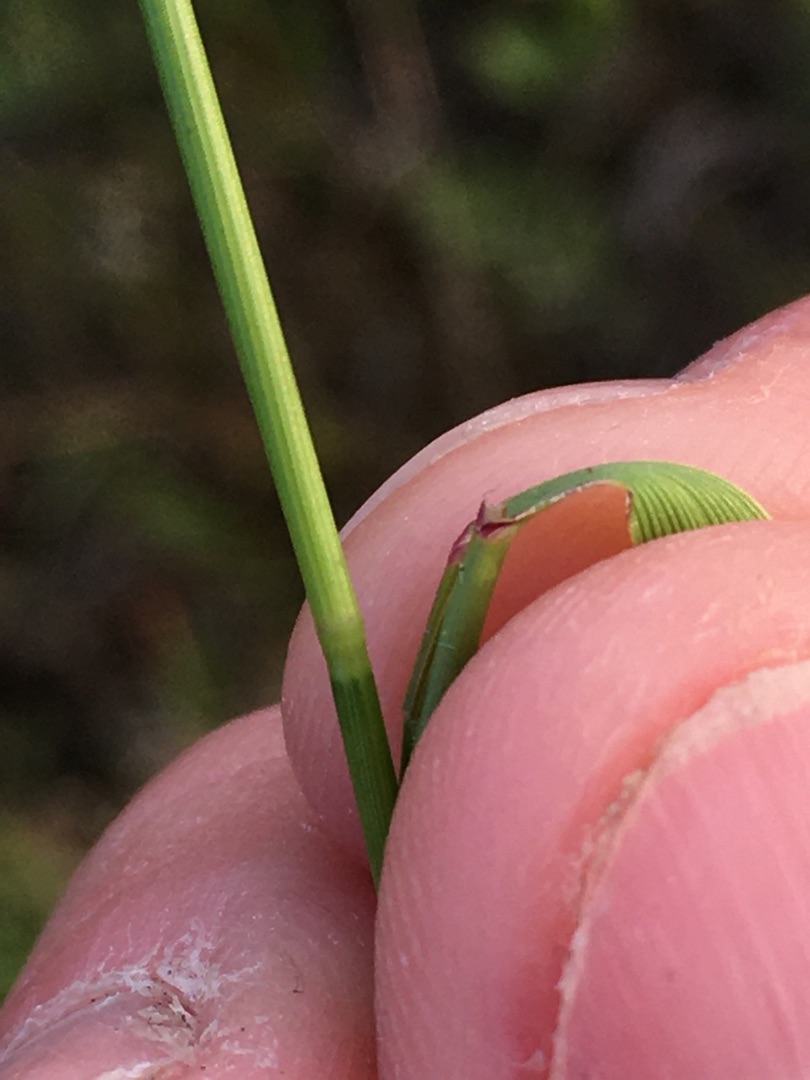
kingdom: Plantae
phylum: Tracheophyta
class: Liliopsida
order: Poales
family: Poaceae
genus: Agrostis
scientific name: Agrostis capillaris
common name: Almindelig hvene
